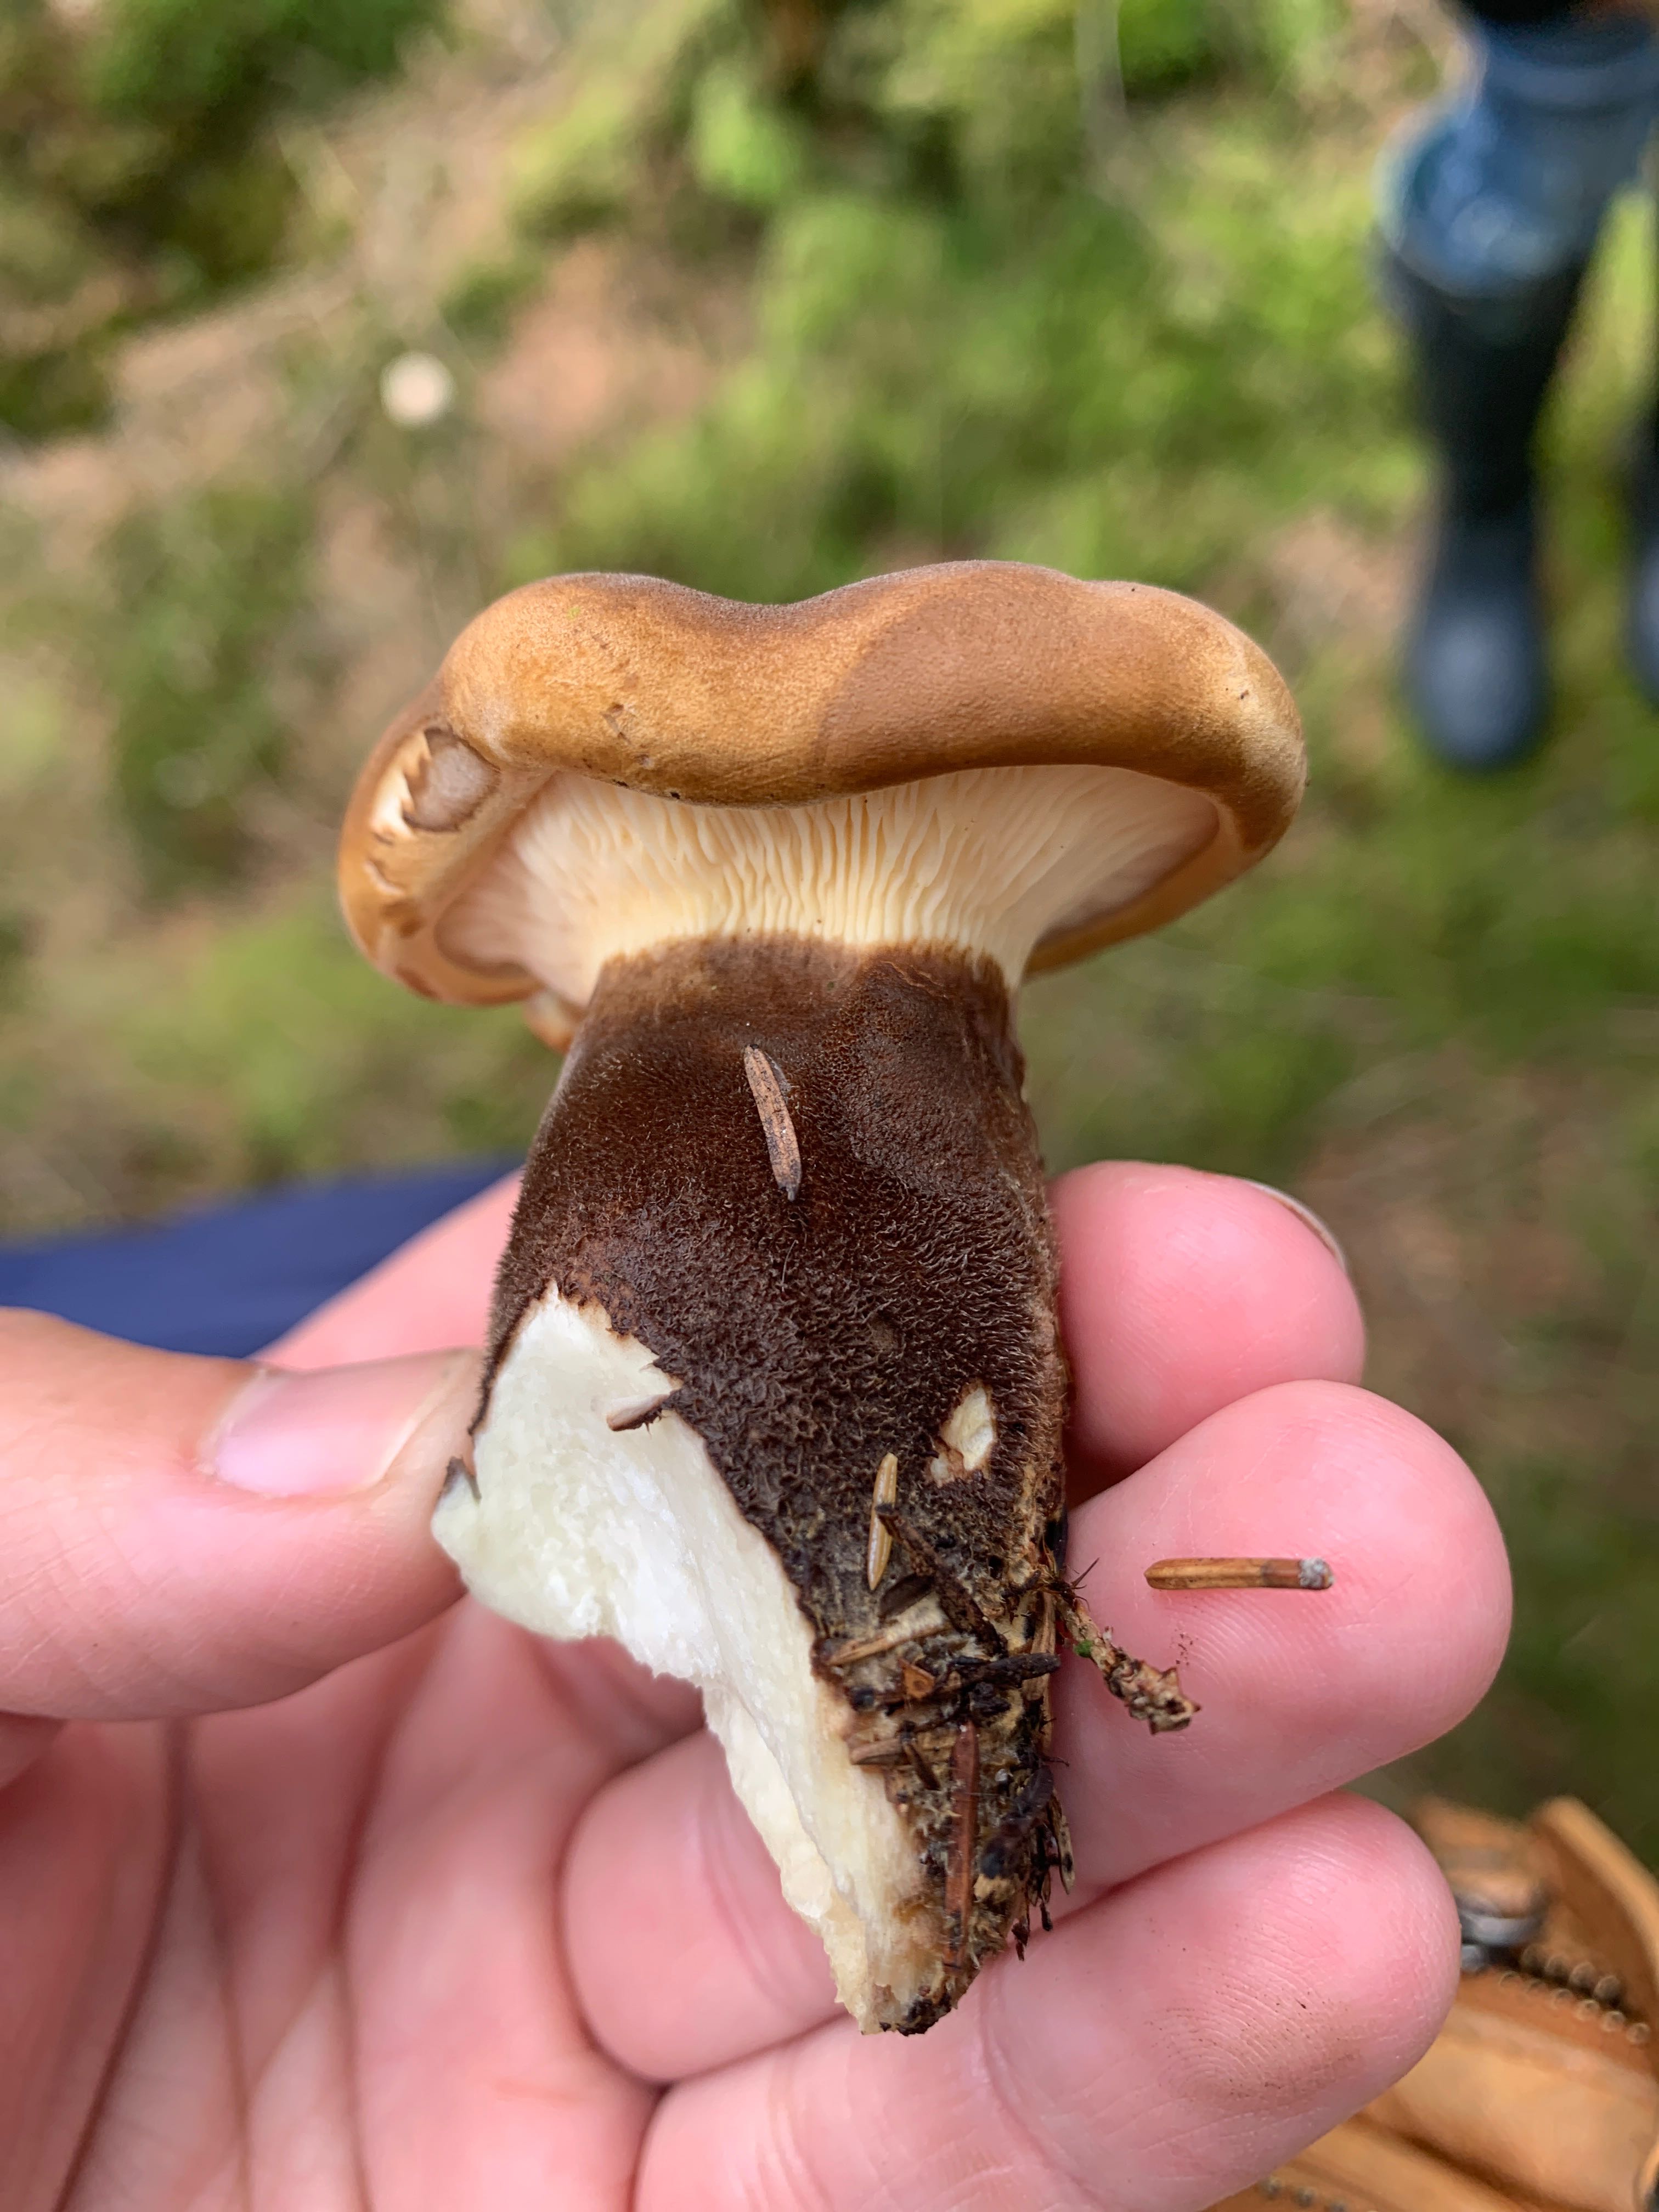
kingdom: Fungi
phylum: Basidiomycota
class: Agaricomycetes
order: Boletales
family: Tapinellaceae
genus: Tapinella
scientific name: Tapinella atrotomentosa
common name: sortfiltet viftesvamp
